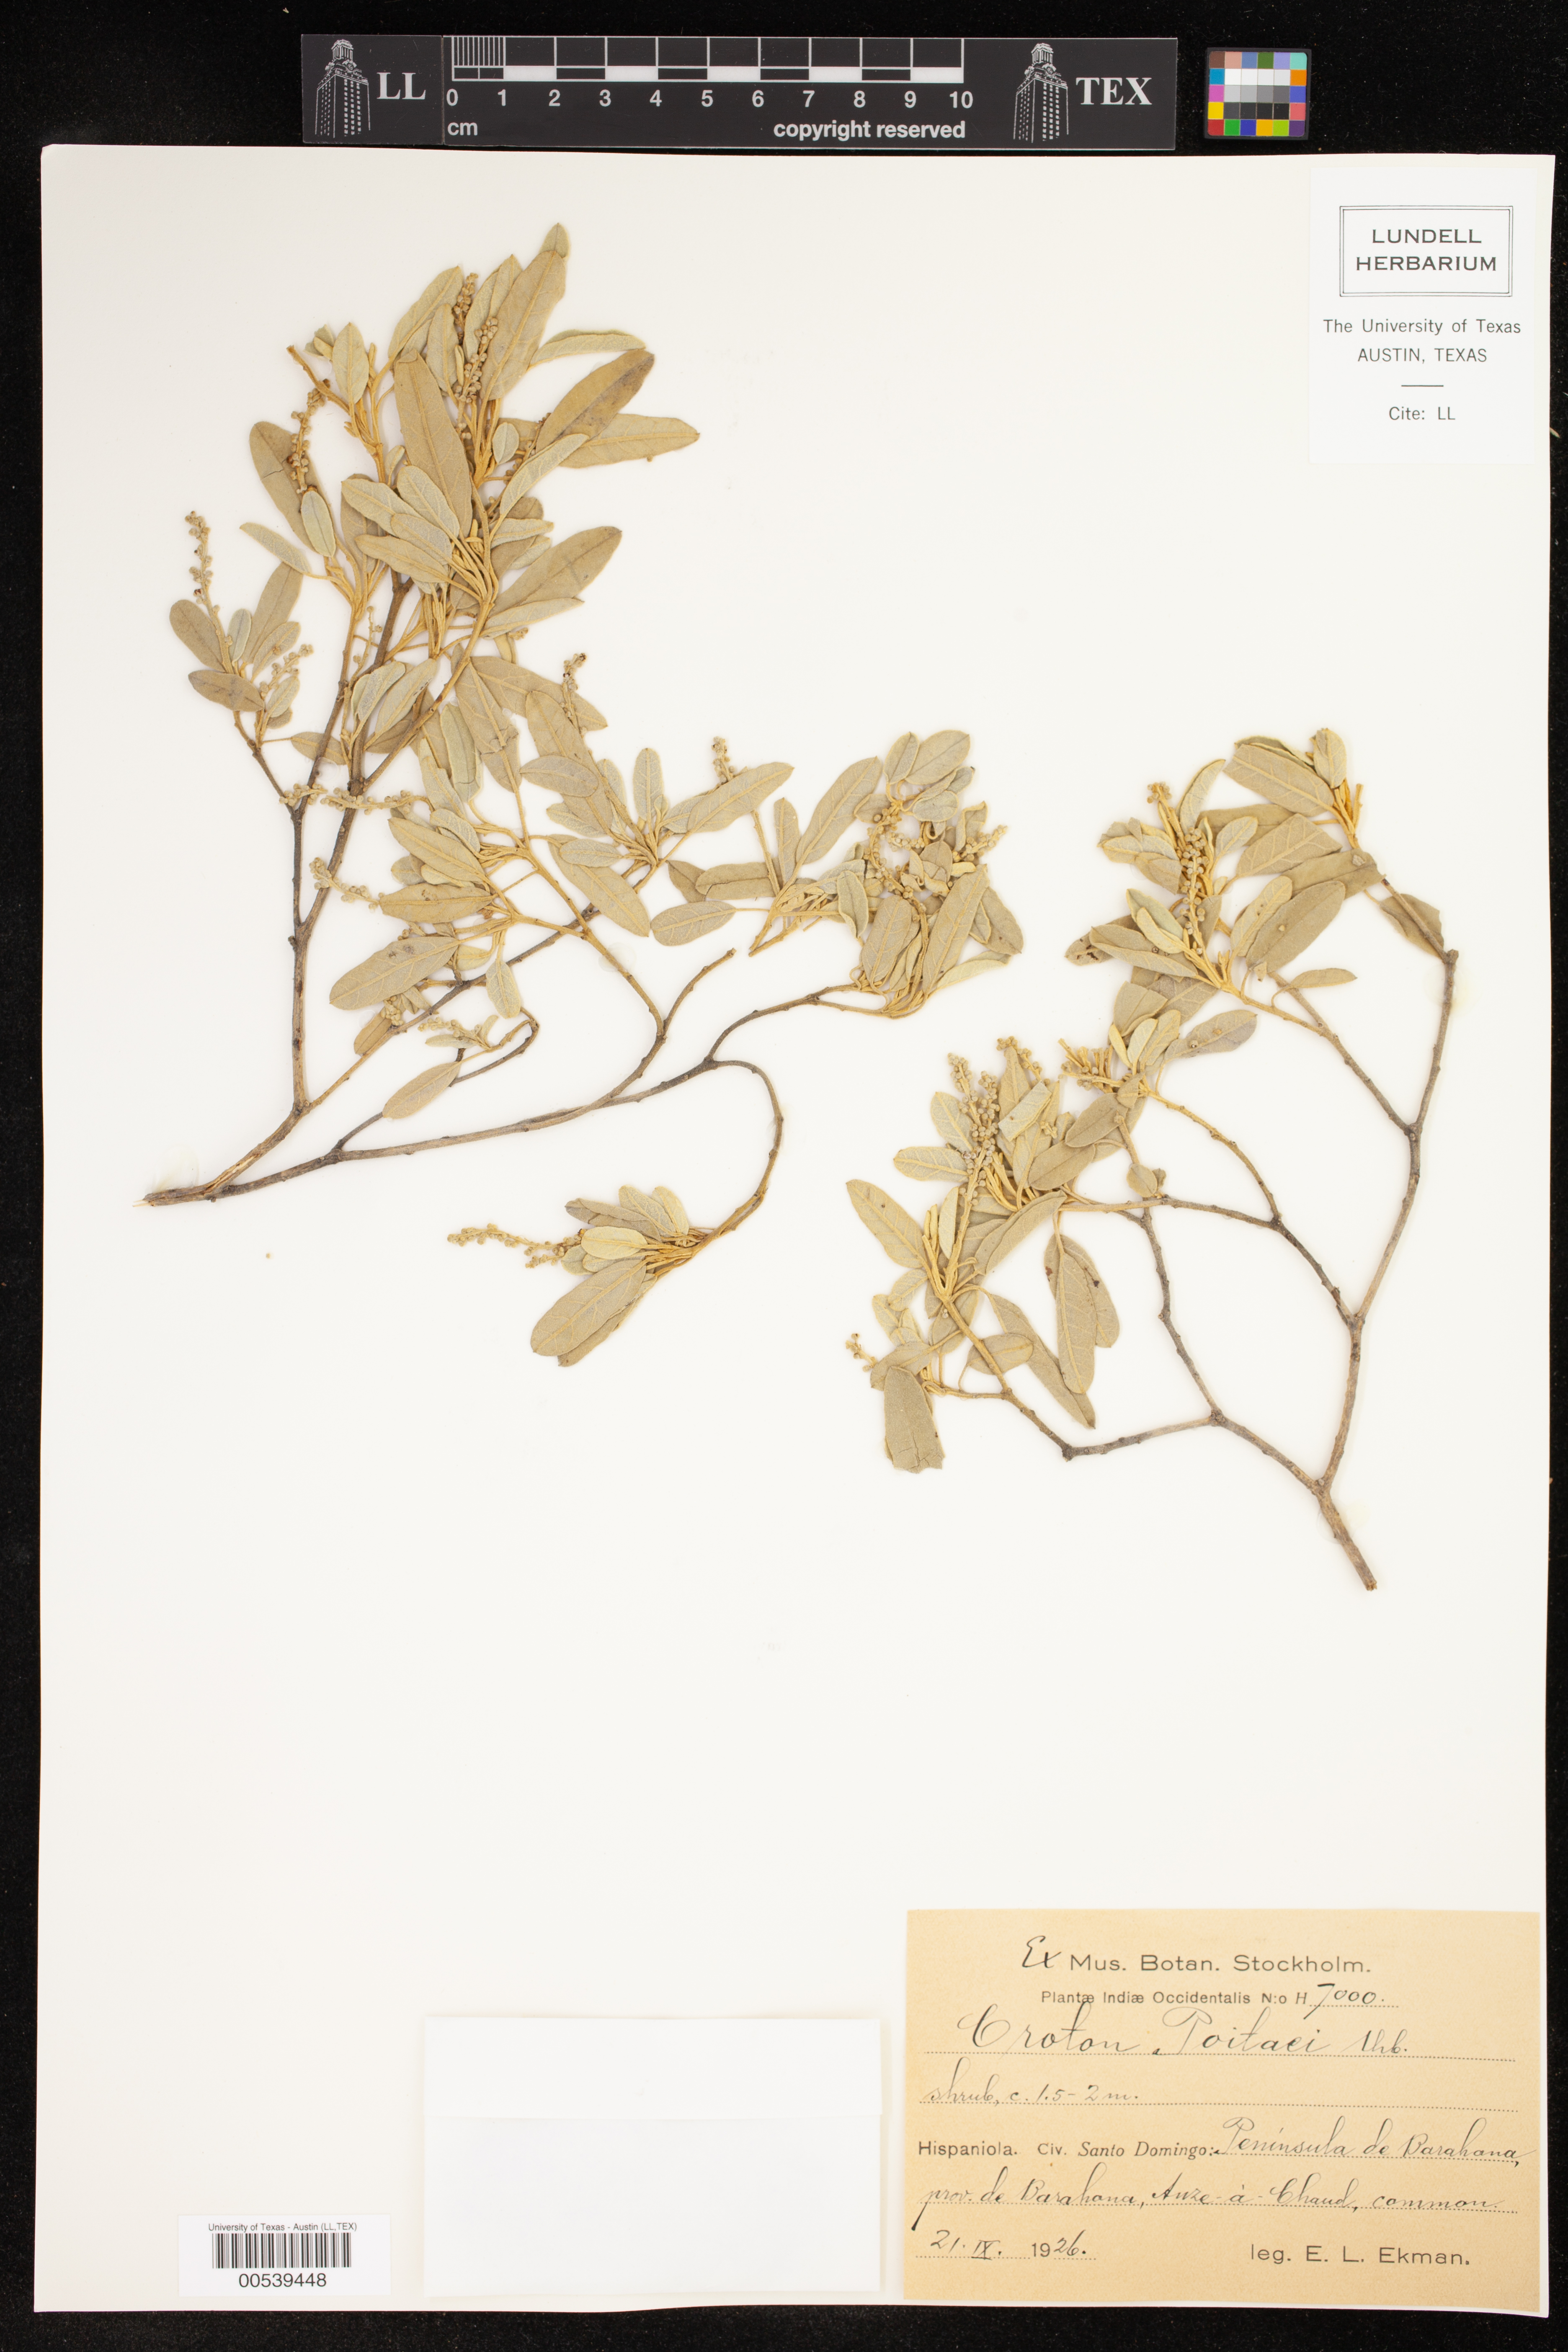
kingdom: Plantae
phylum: Tracheophyta
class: Magnoliopsida
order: Malpighiales
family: Euphorbiaceae
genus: Croton
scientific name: Croton poitaei
